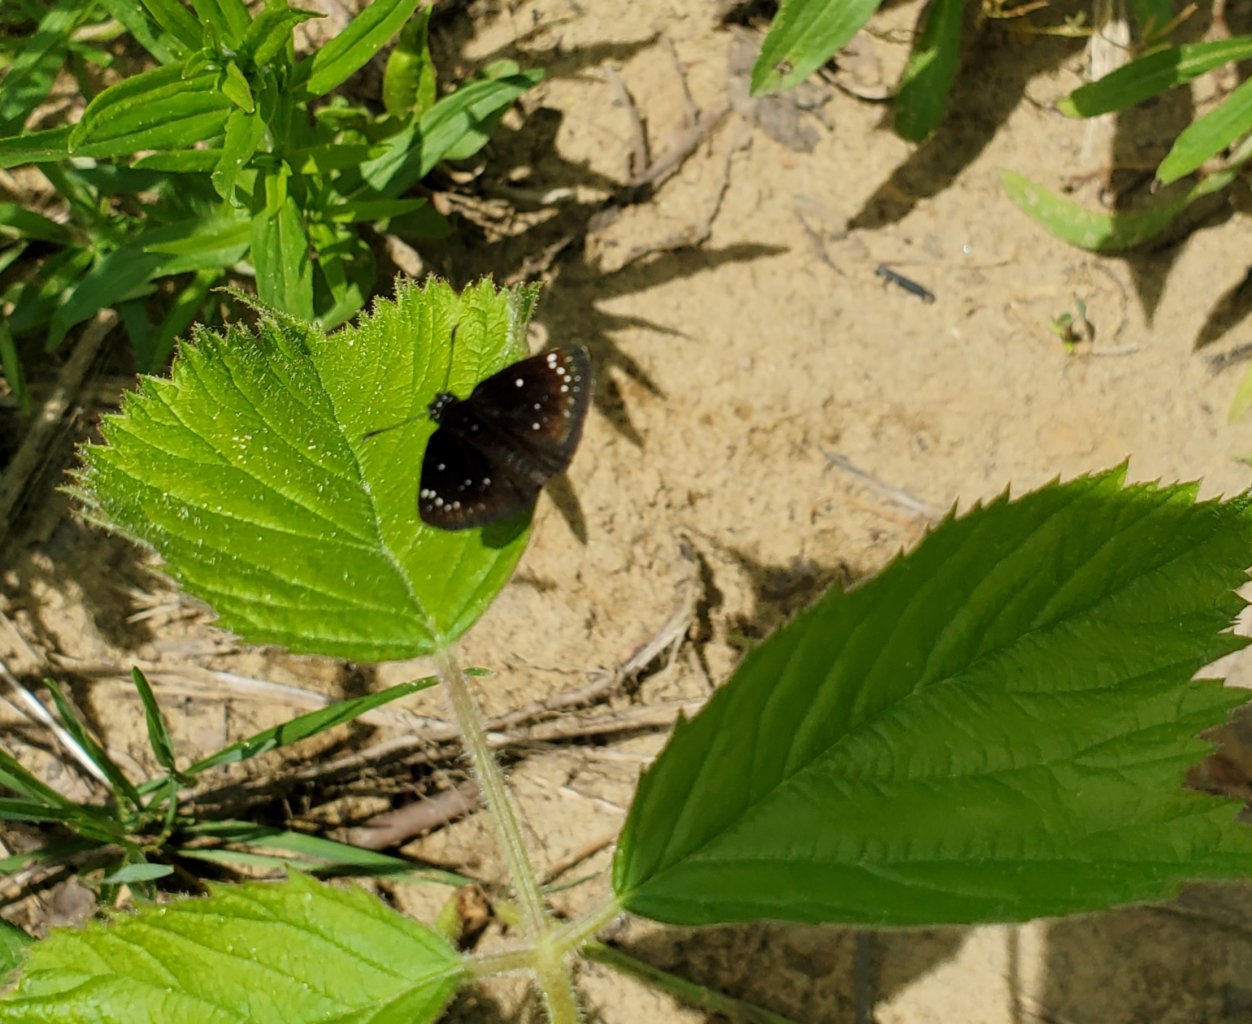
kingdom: Animalia
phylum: Arthropoda
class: Insecta
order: Lepidoptera
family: Hesperiidae
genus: Pholisora
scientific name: Pholisora catullus
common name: Common Sootywing
